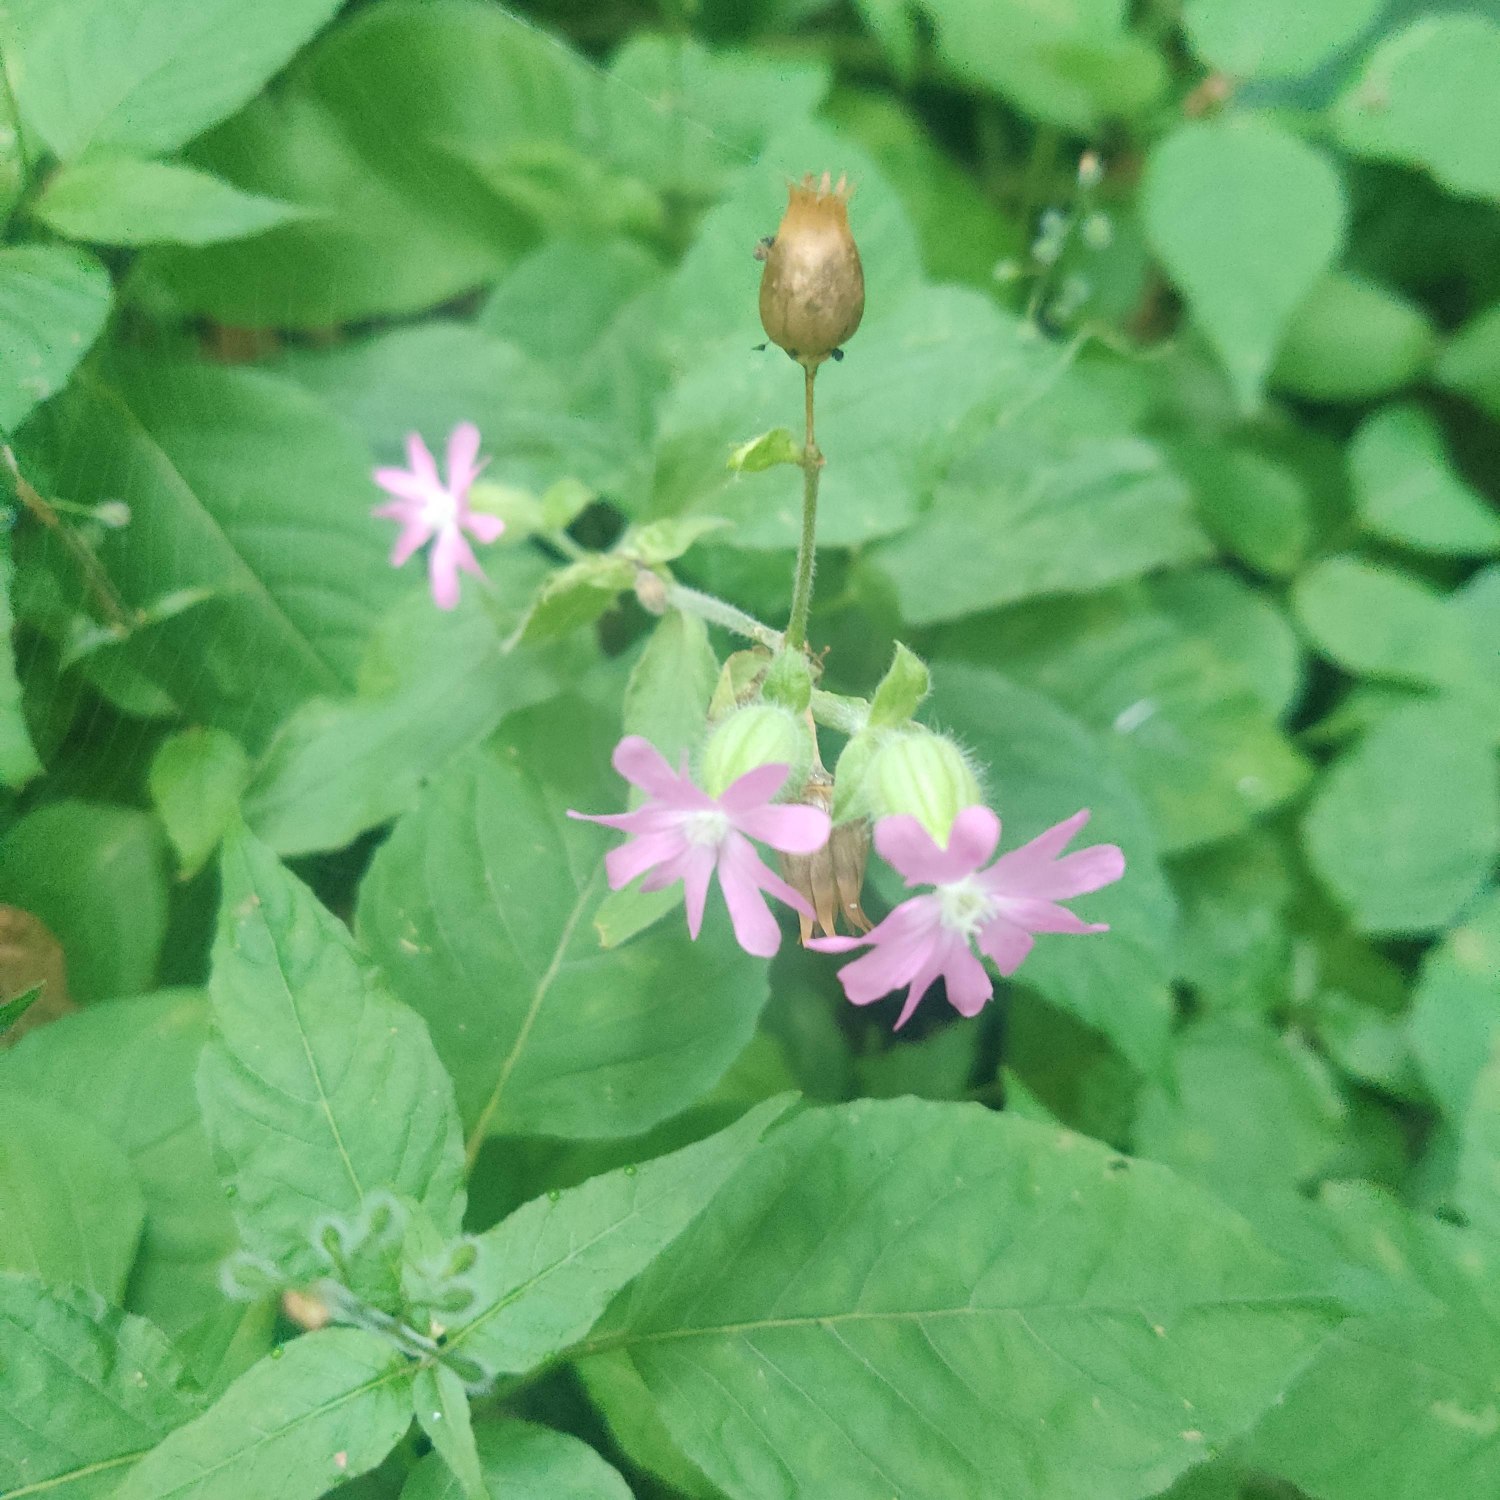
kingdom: Plantae
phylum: Tracheophyta
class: Magnoliopsida
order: Caryophyllales
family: Caryophyllaceae
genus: Silene
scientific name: Silene dioica
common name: Dagpragtstjerne
